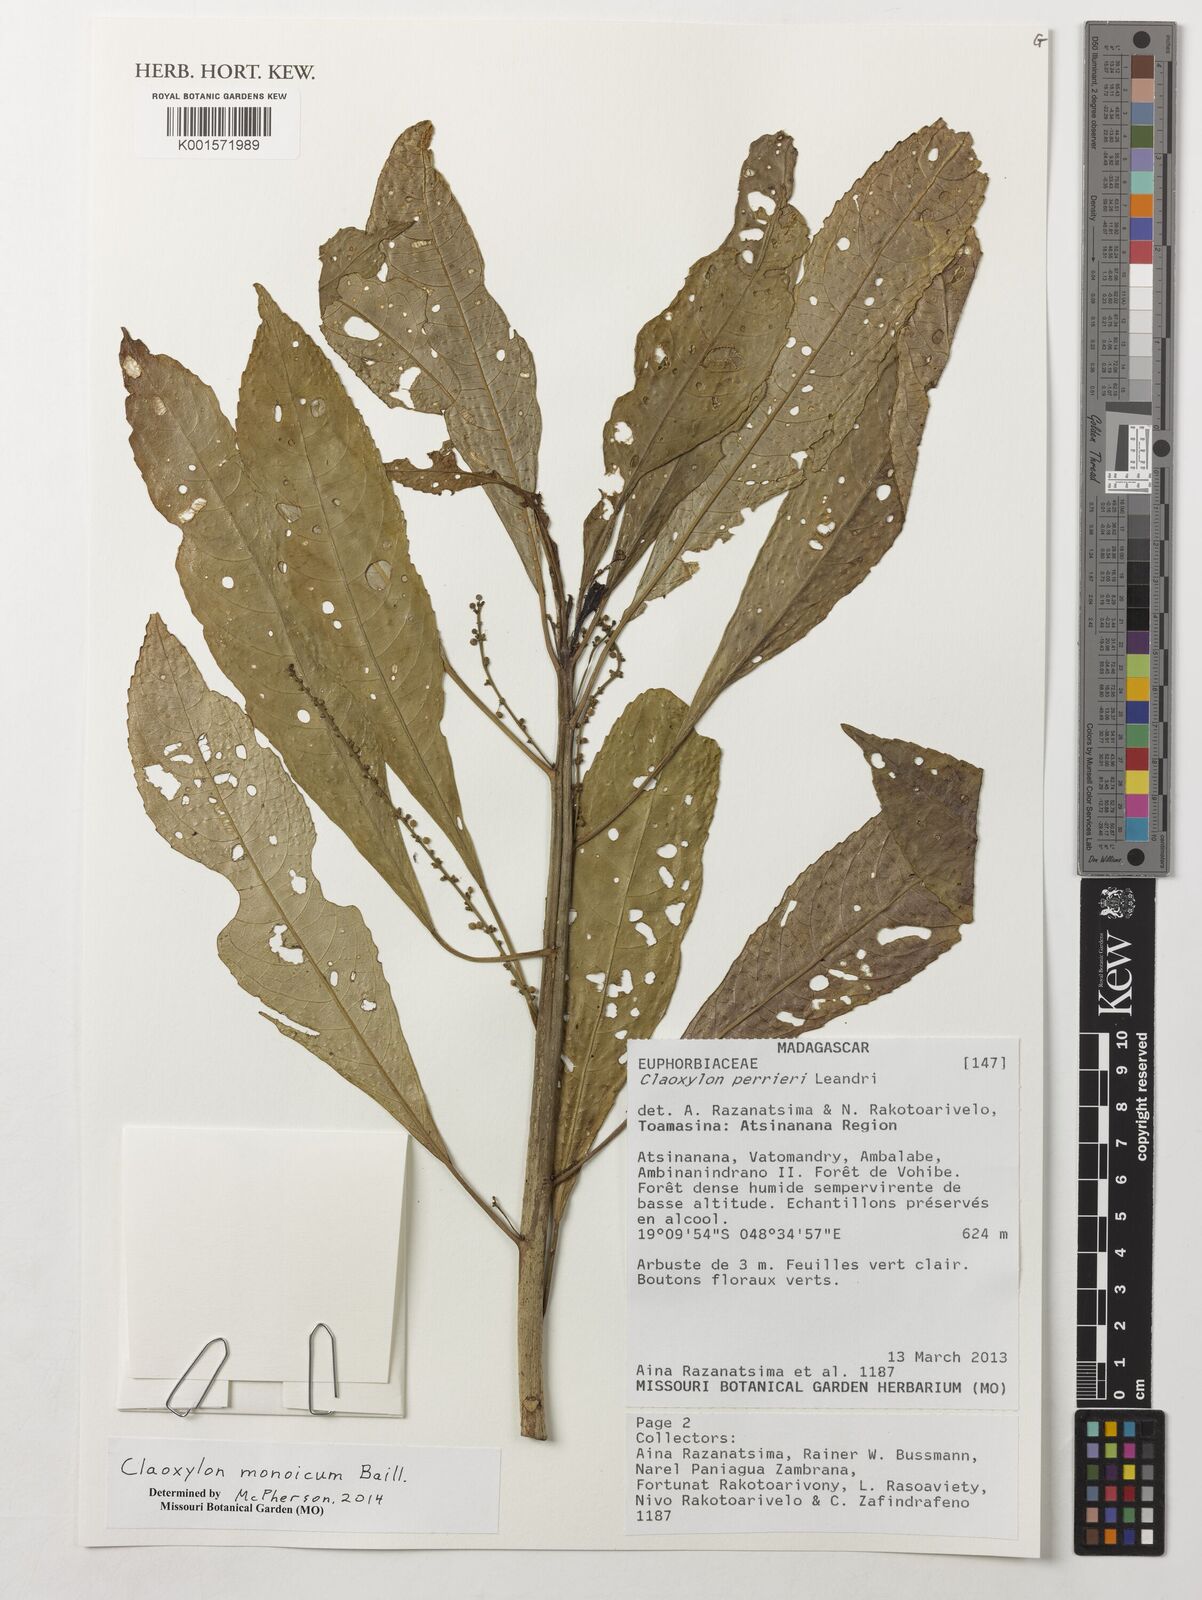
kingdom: Plantae
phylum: Tracheophyta
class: Magnoliopsida
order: Malpighiales
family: Euphorbiaceae
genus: Claoxylon
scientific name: Claoxylon monoicum
